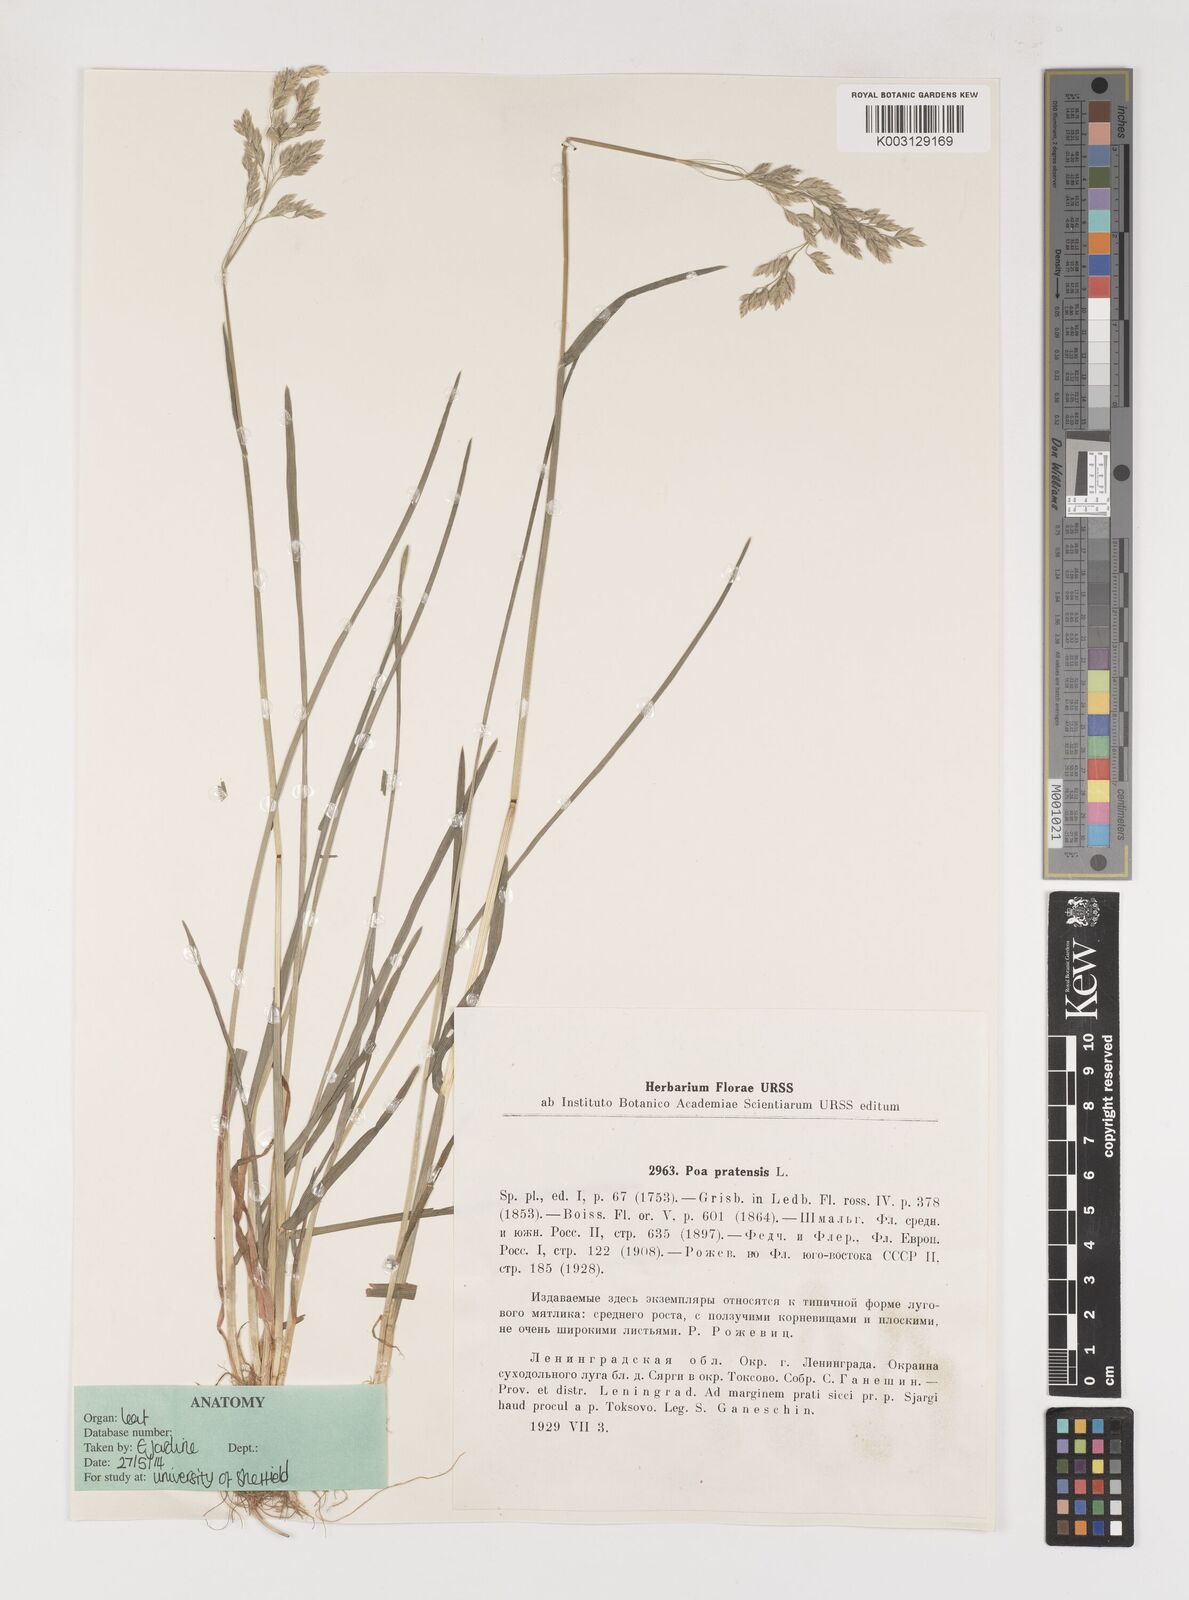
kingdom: Plantae
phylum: Tracheophyta
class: Liliopsida
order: Poales
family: Poaceae
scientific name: Poaceae
